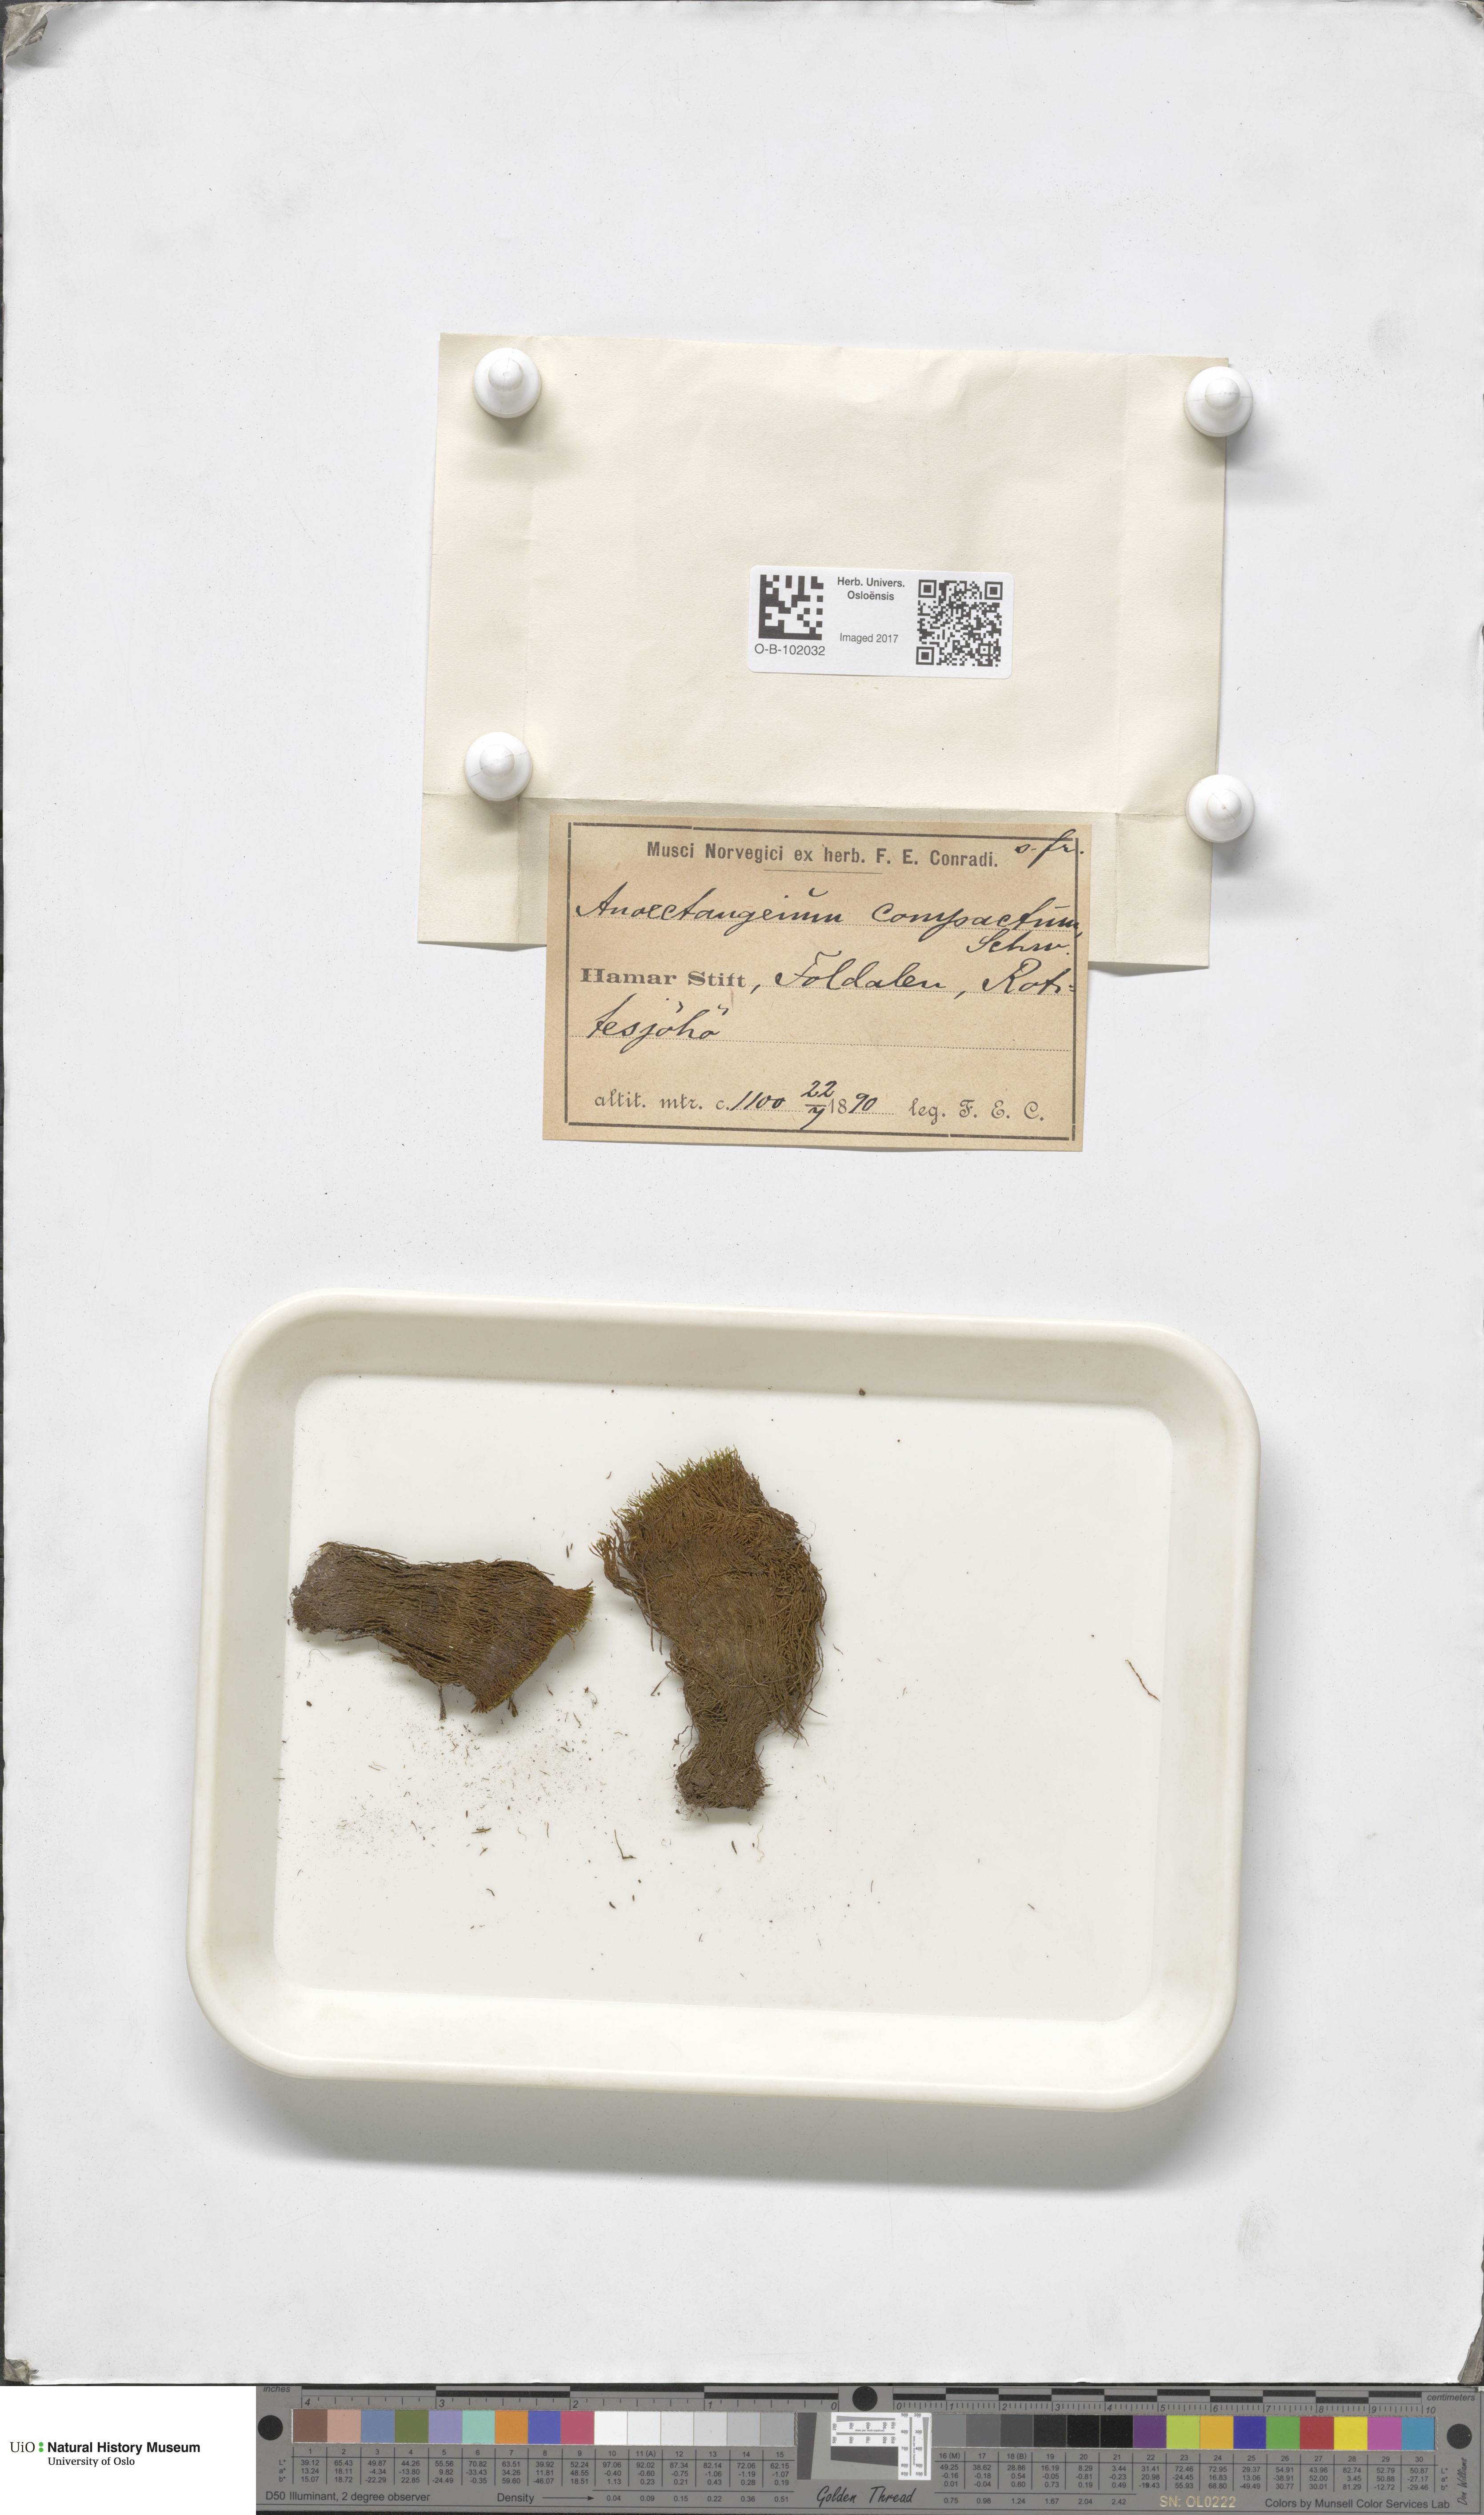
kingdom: Plantae
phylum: Bryophyta
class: Bryopsida
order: Pottiales
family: Pottiaceae
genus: Anoectangium
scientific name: Anoectangium aestivum
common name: Summer-moss
